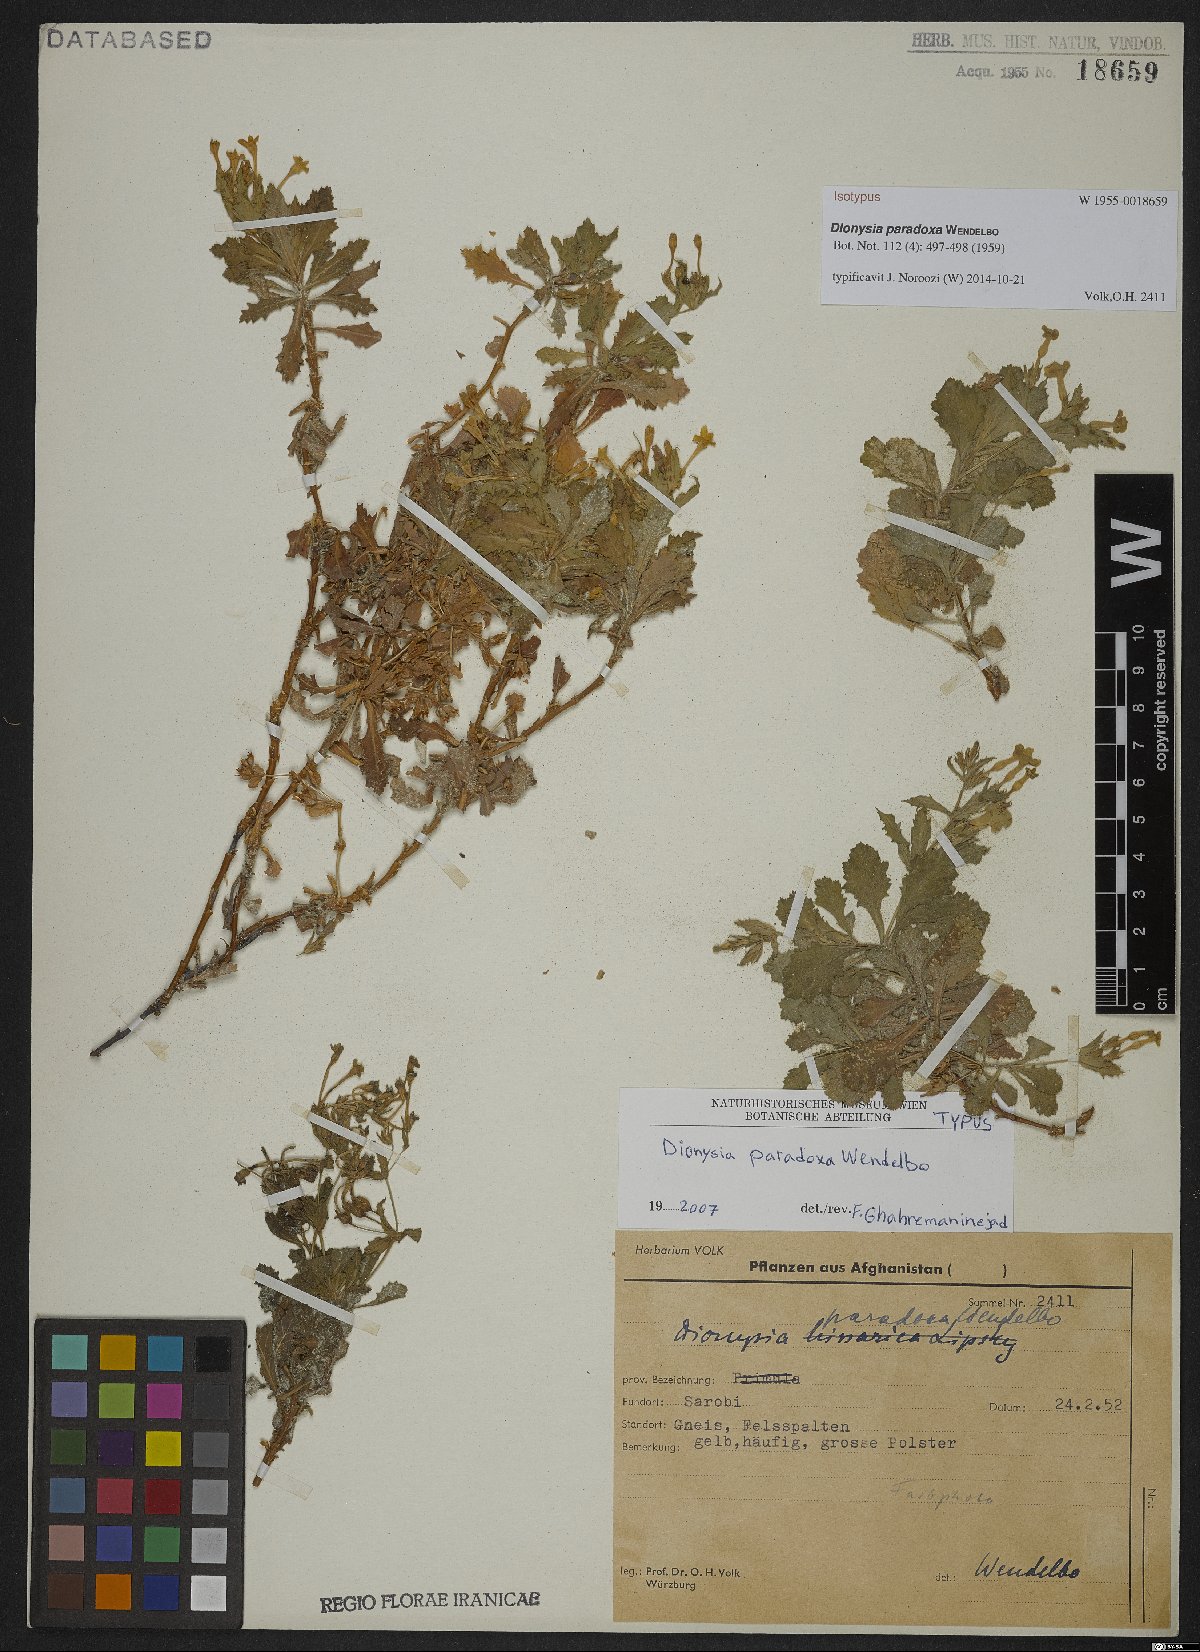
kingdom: Plantae
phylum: Tracheophyta
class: Magnoliopsida
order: Ericales
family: Primulaceae
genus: Dionysia
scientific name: Dionysia paradoxa
